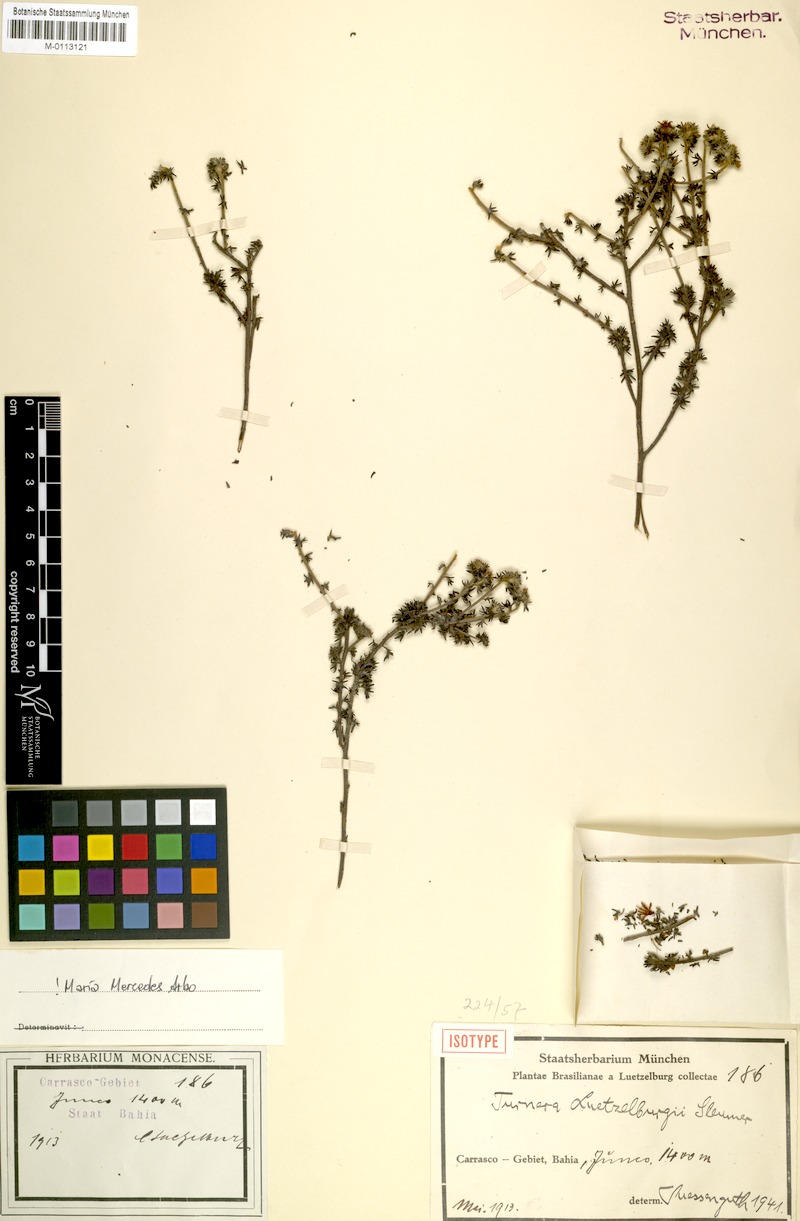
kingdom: Plantae
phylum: Tracheophyta
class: Magnoliopsida
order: Malpighiales
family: Turneraceae
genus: Turnera
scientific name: Turnera luetzelburgii
